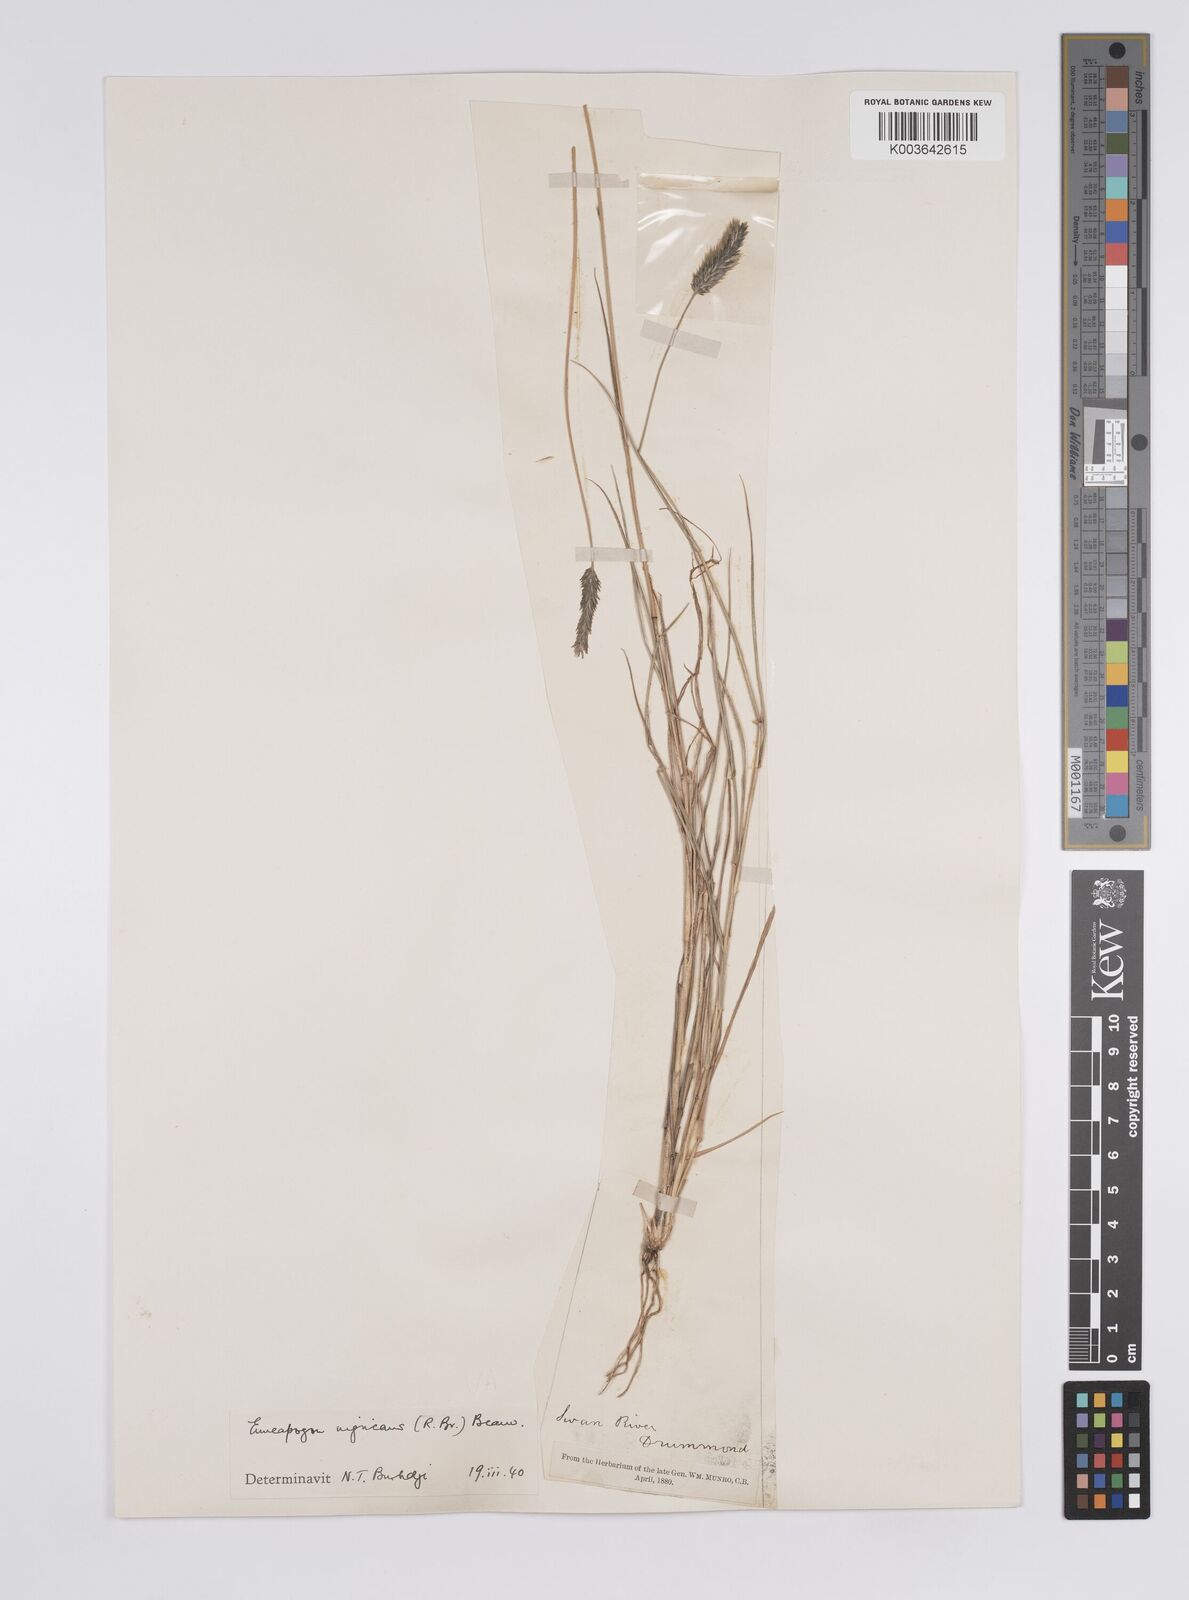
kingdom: Plantae
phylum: Tracheophyta
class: Liliopsida
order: Poales
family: Poaceae
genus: Enneapogon
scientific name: Enneapogon nigricans
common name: Pappus grass
